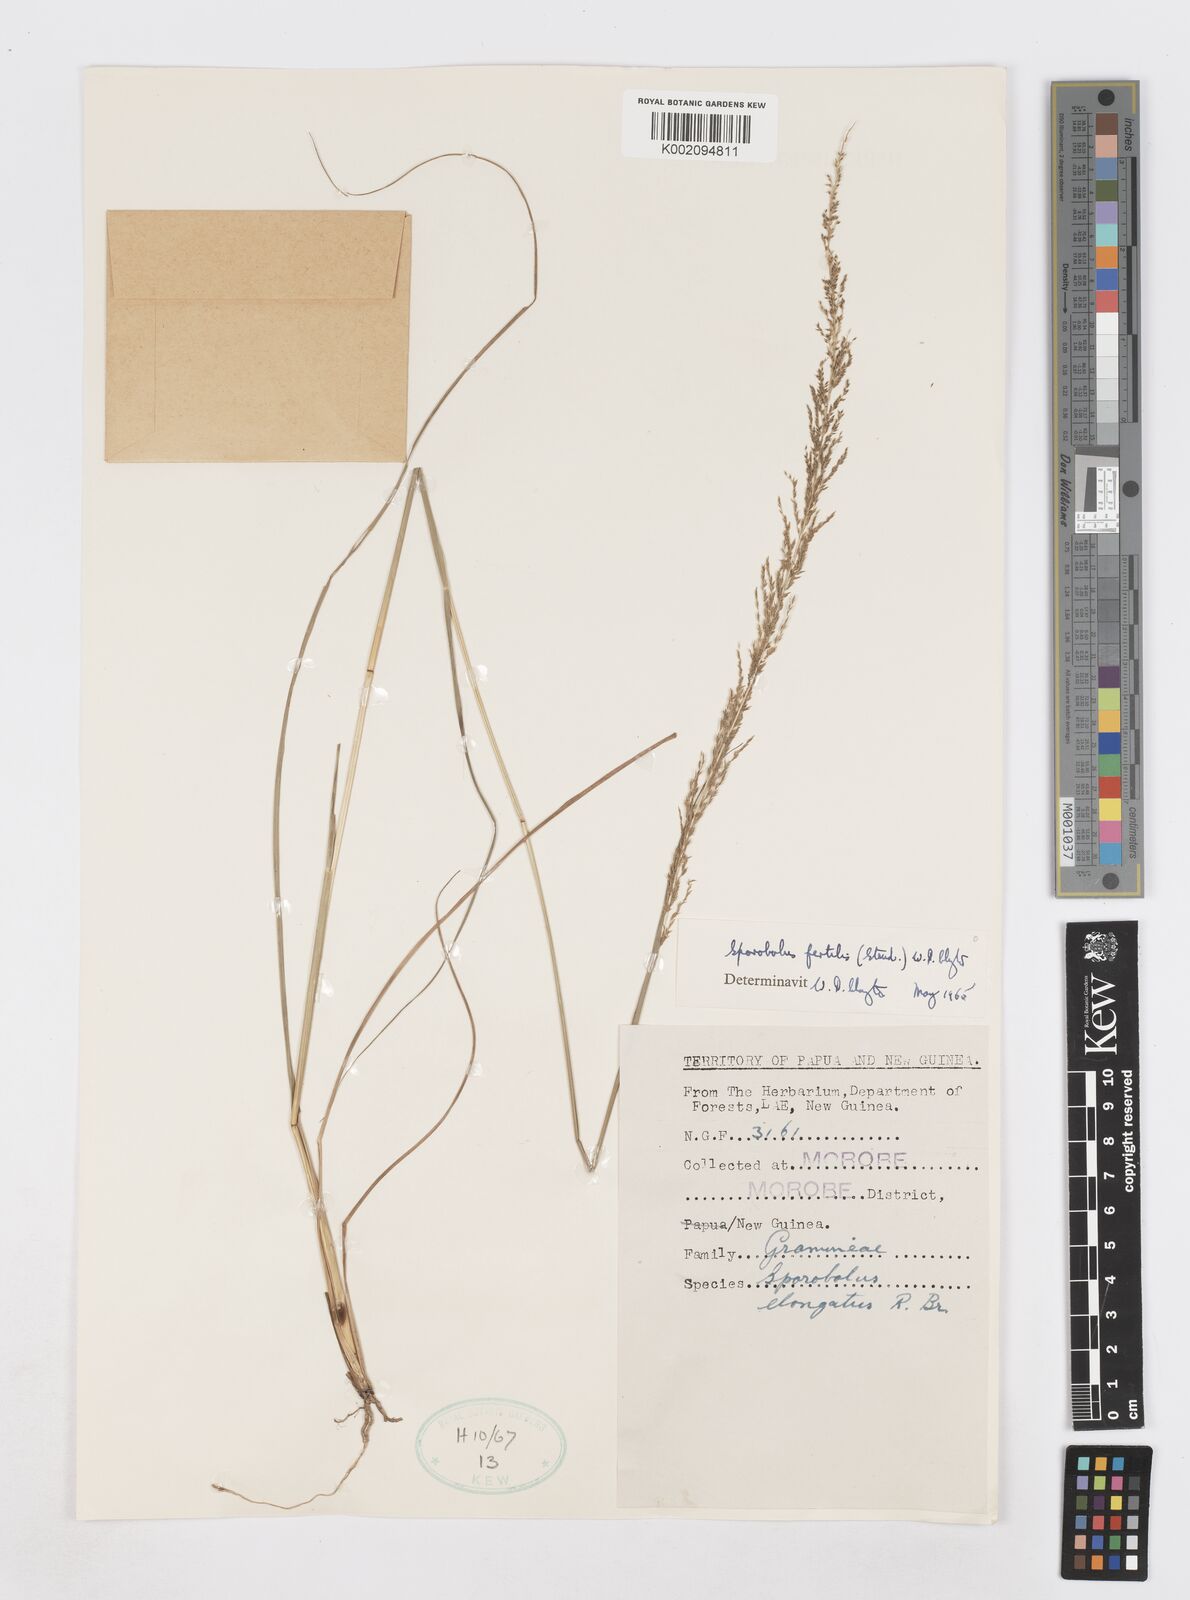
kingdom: Plantae
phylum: Tracheophyta
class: Liliopsida
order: Poales
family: Poaceae
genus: Sporobolus
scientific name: Sporobolus fertilis
